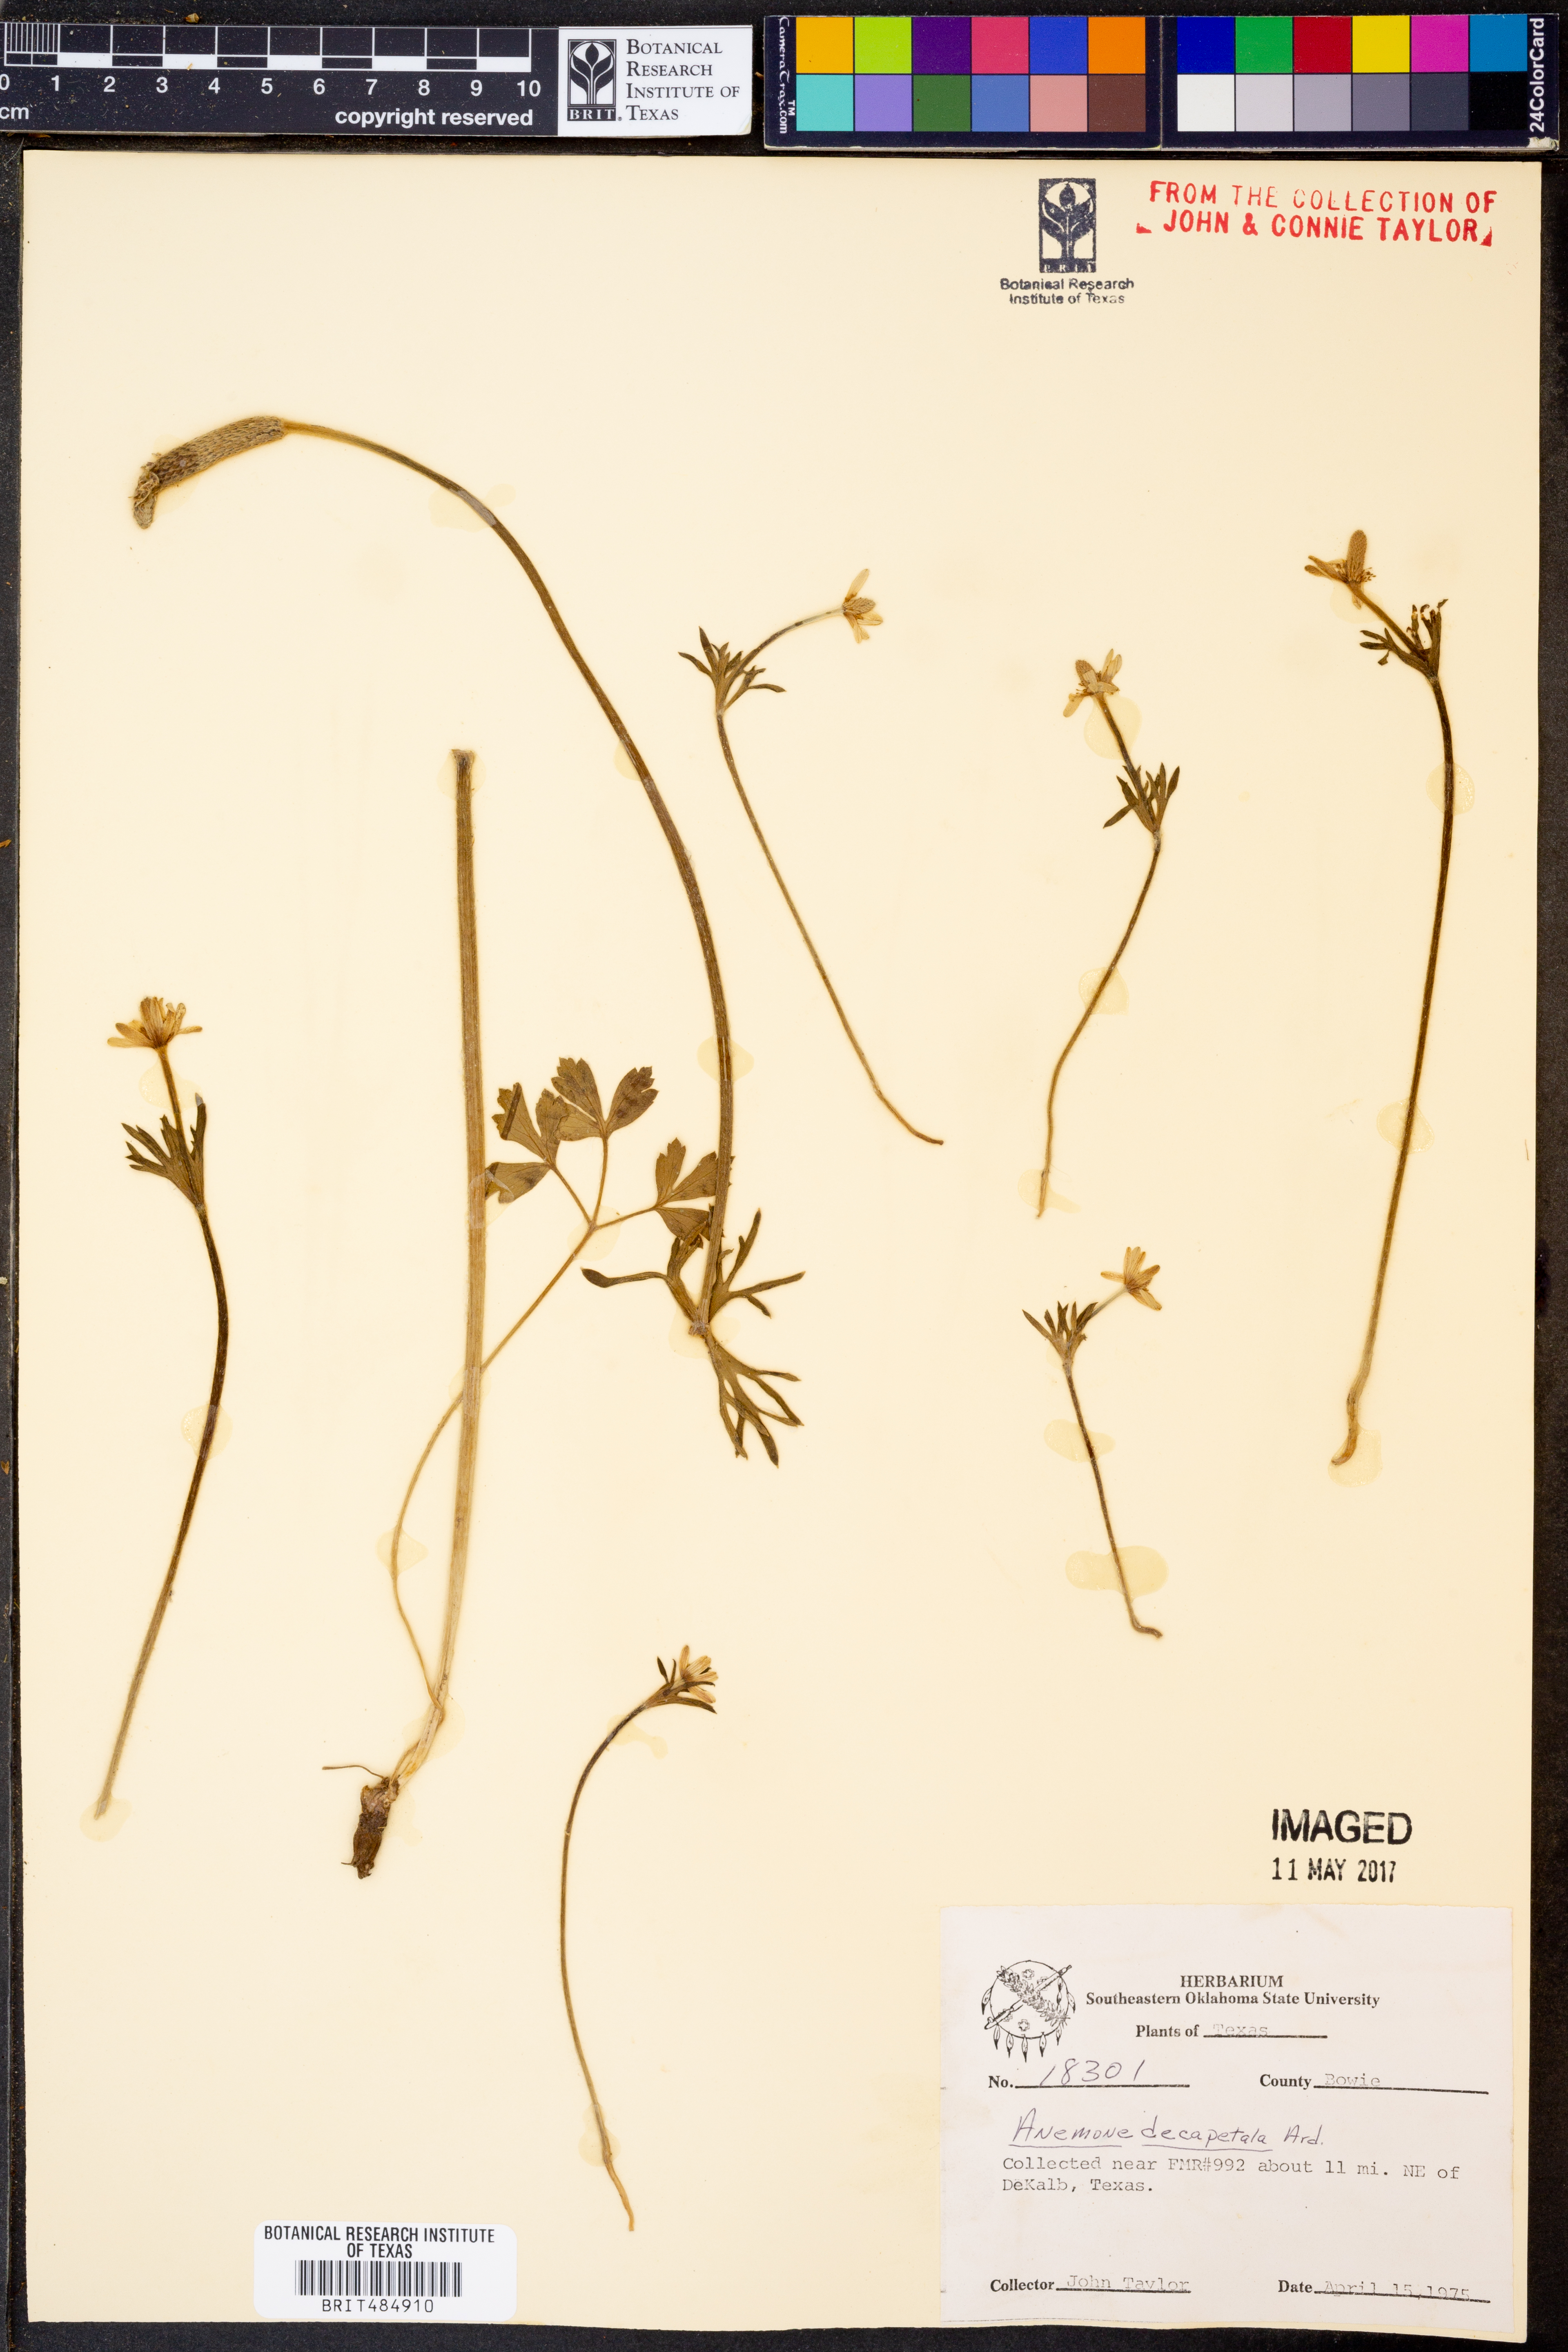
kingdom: Plantae
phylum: Tracheophyta
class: Magnoliopsida
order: Ranunculales
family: Ranunculaceae
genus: Anemone
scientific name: Anemone decapetala
